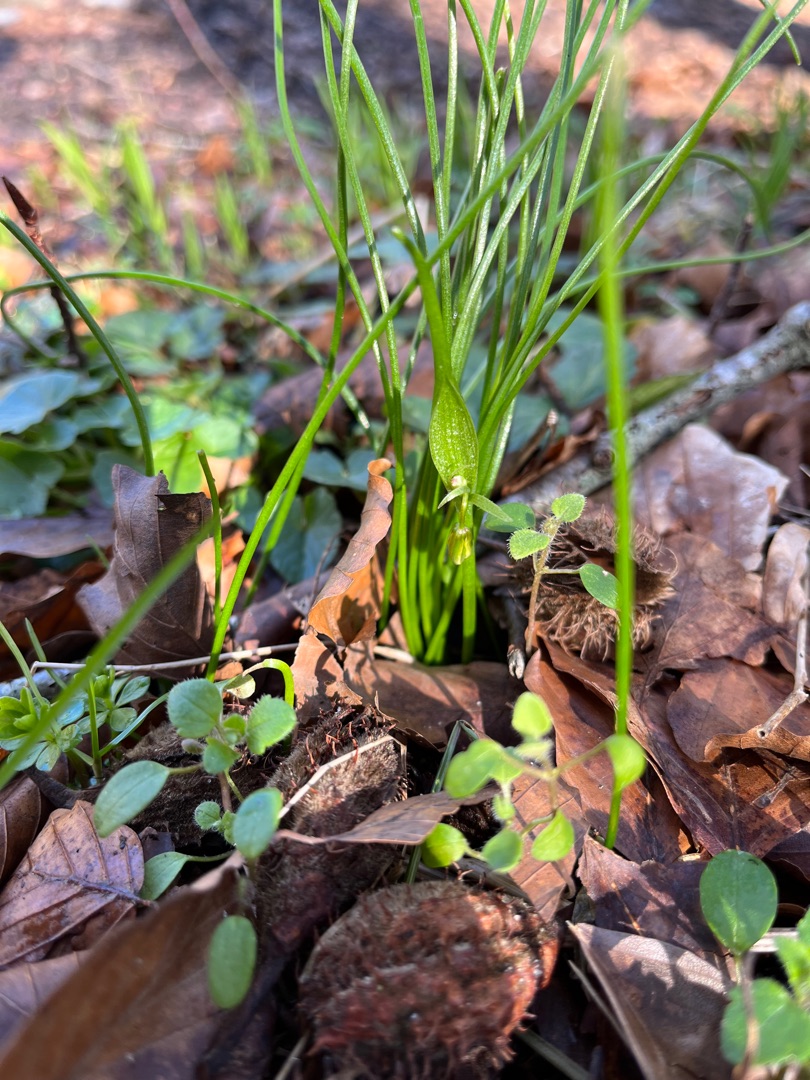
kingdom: Plantae
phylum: Tracheophyta
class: Liliopsida
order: Liliales
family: Liliaceae
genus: Gagea
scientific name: Gagea spathacea
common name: Hylster-guldstjerne
